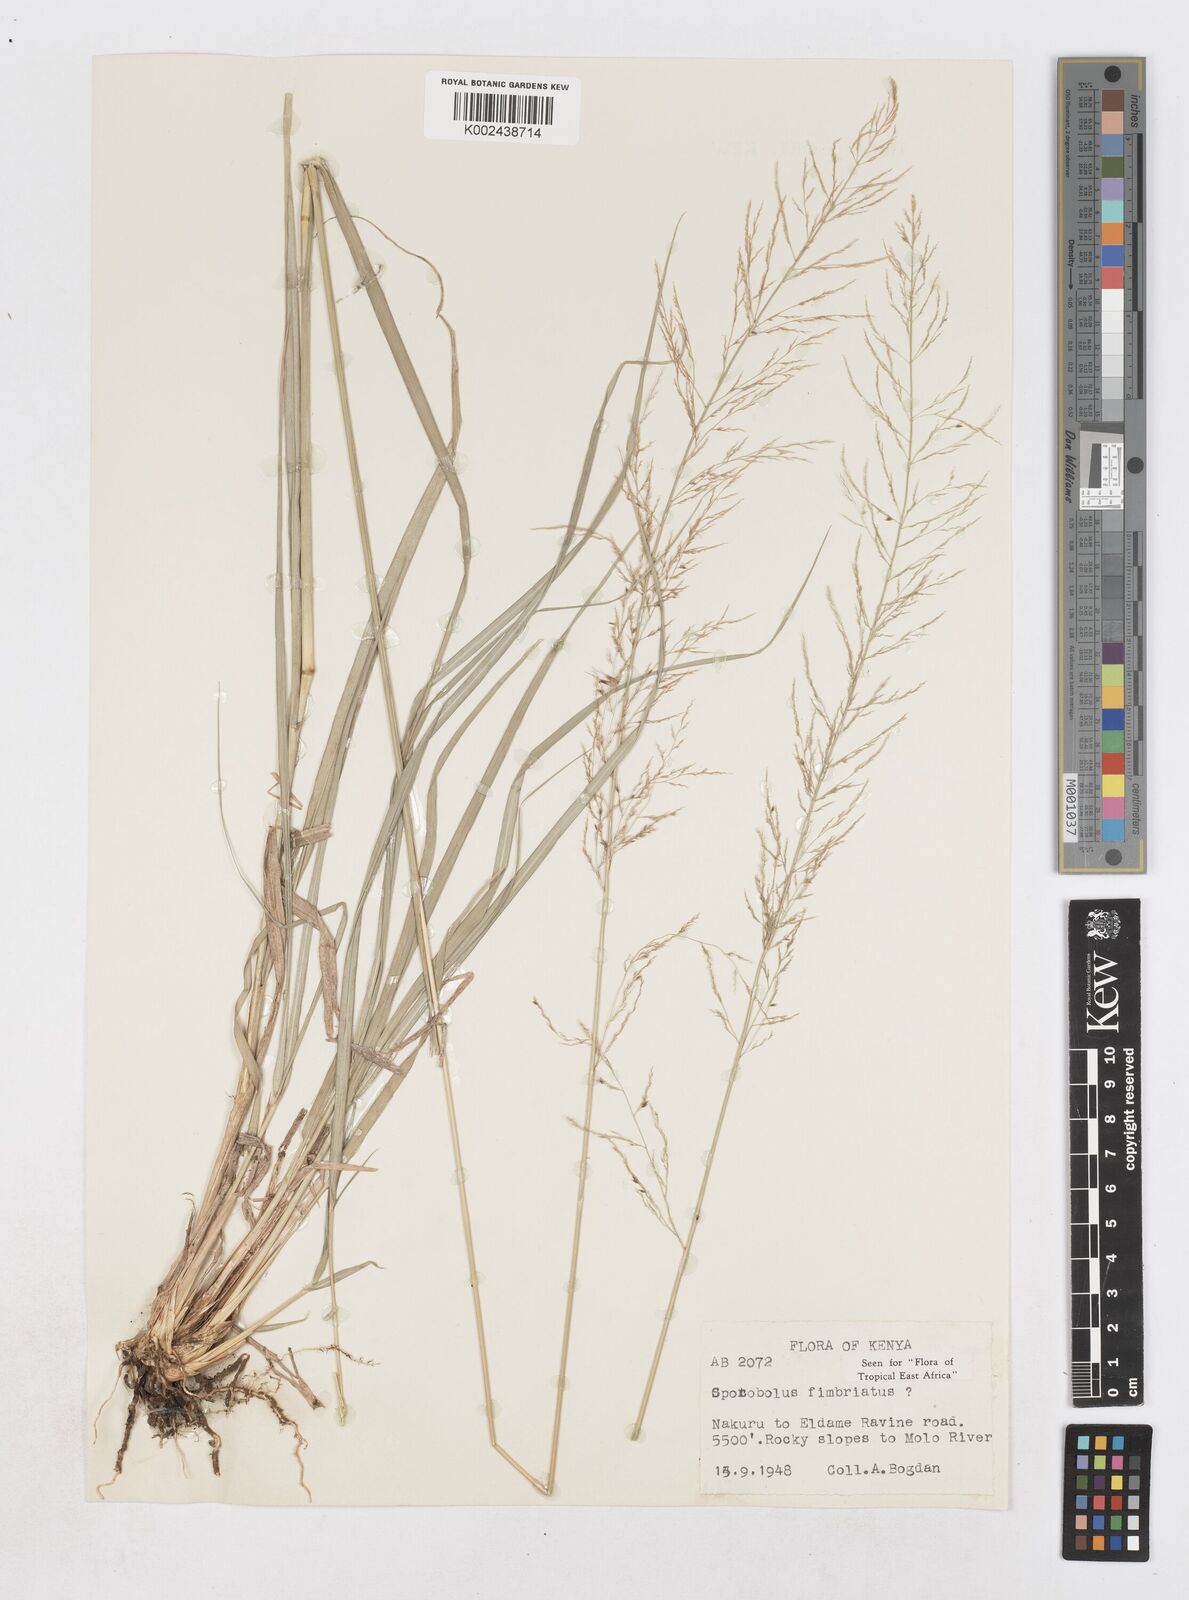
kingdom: Plantae
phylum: Tracheophyta
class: Liliopsida
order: Poales
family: Poaceae
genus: Sporobolus
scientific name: Sporobolus fimbriatus
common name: Fringed dropseed
